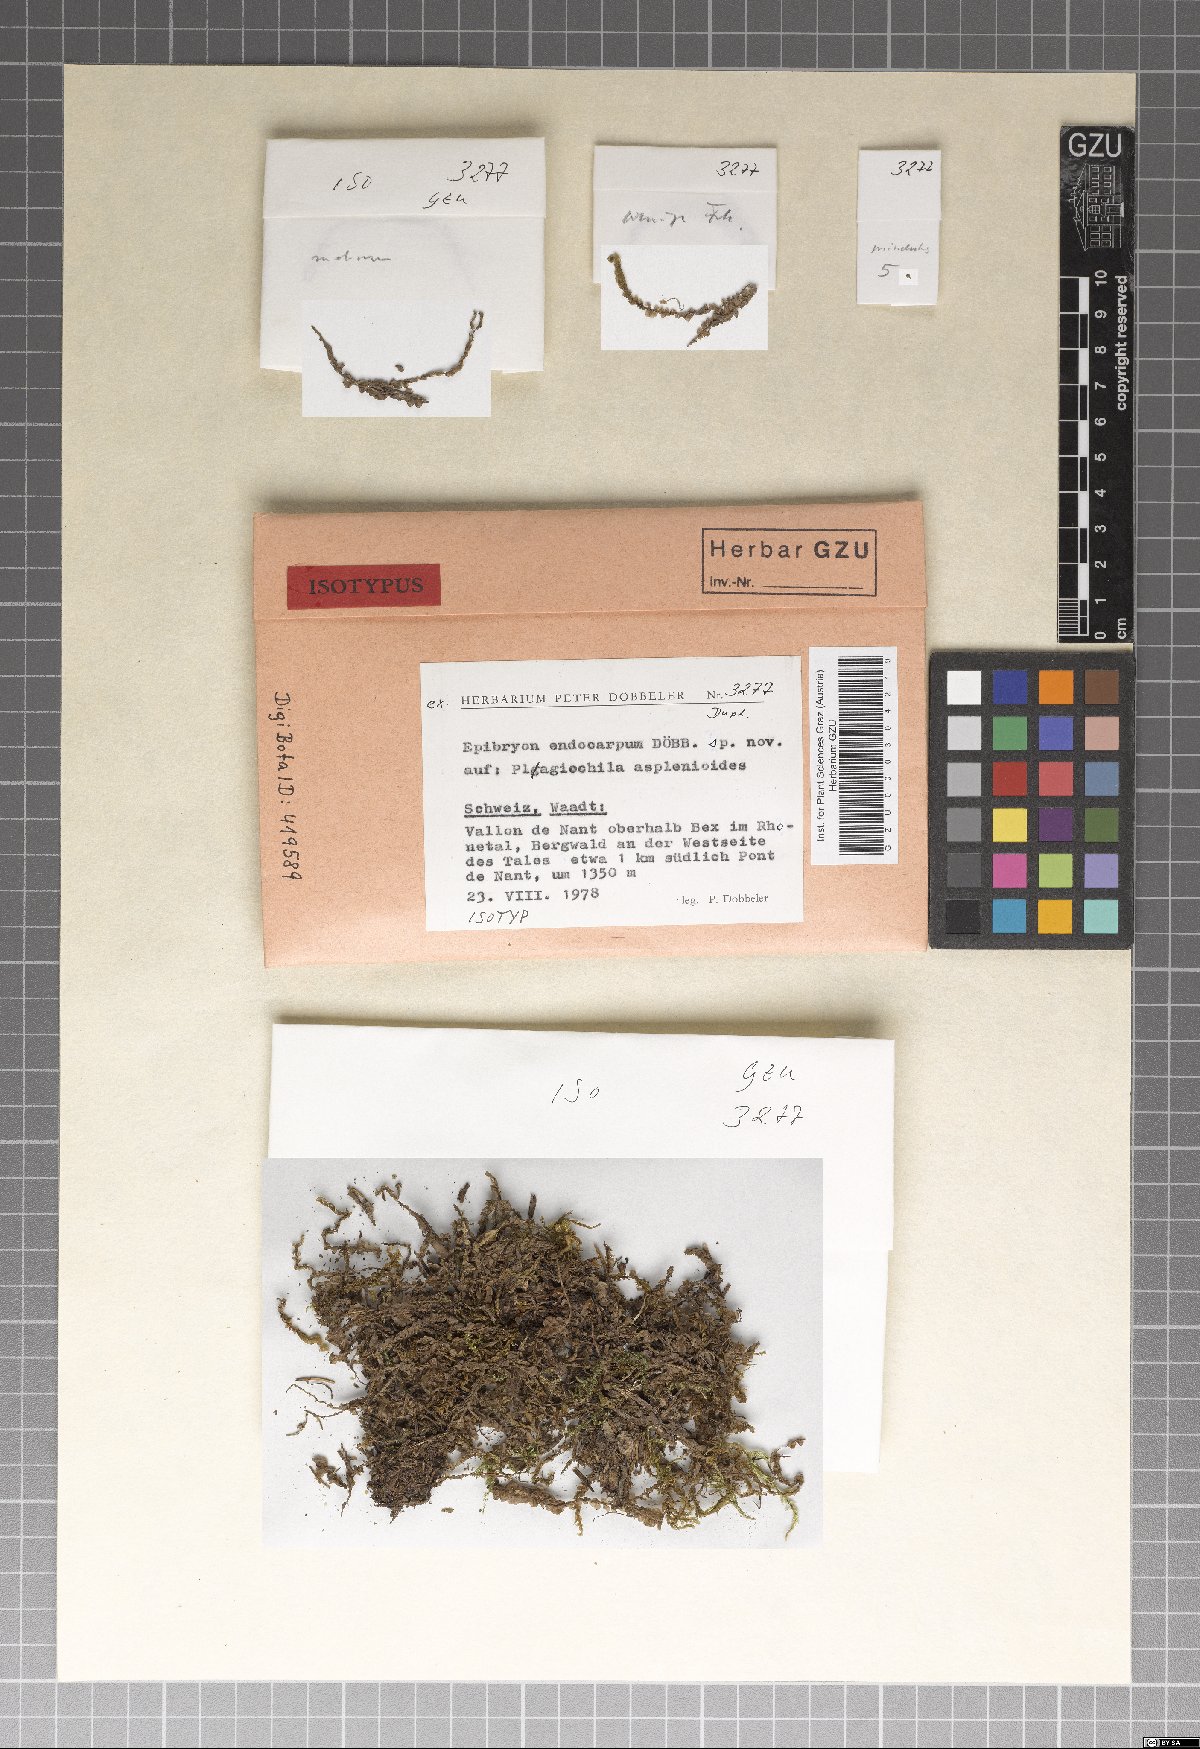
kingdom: Fungi
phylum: Ascomycota
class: Eurotiomycetes
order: Chaetothyriales
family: Epibryaceae
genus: Epibryon
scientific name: Epibryon endocarpum
